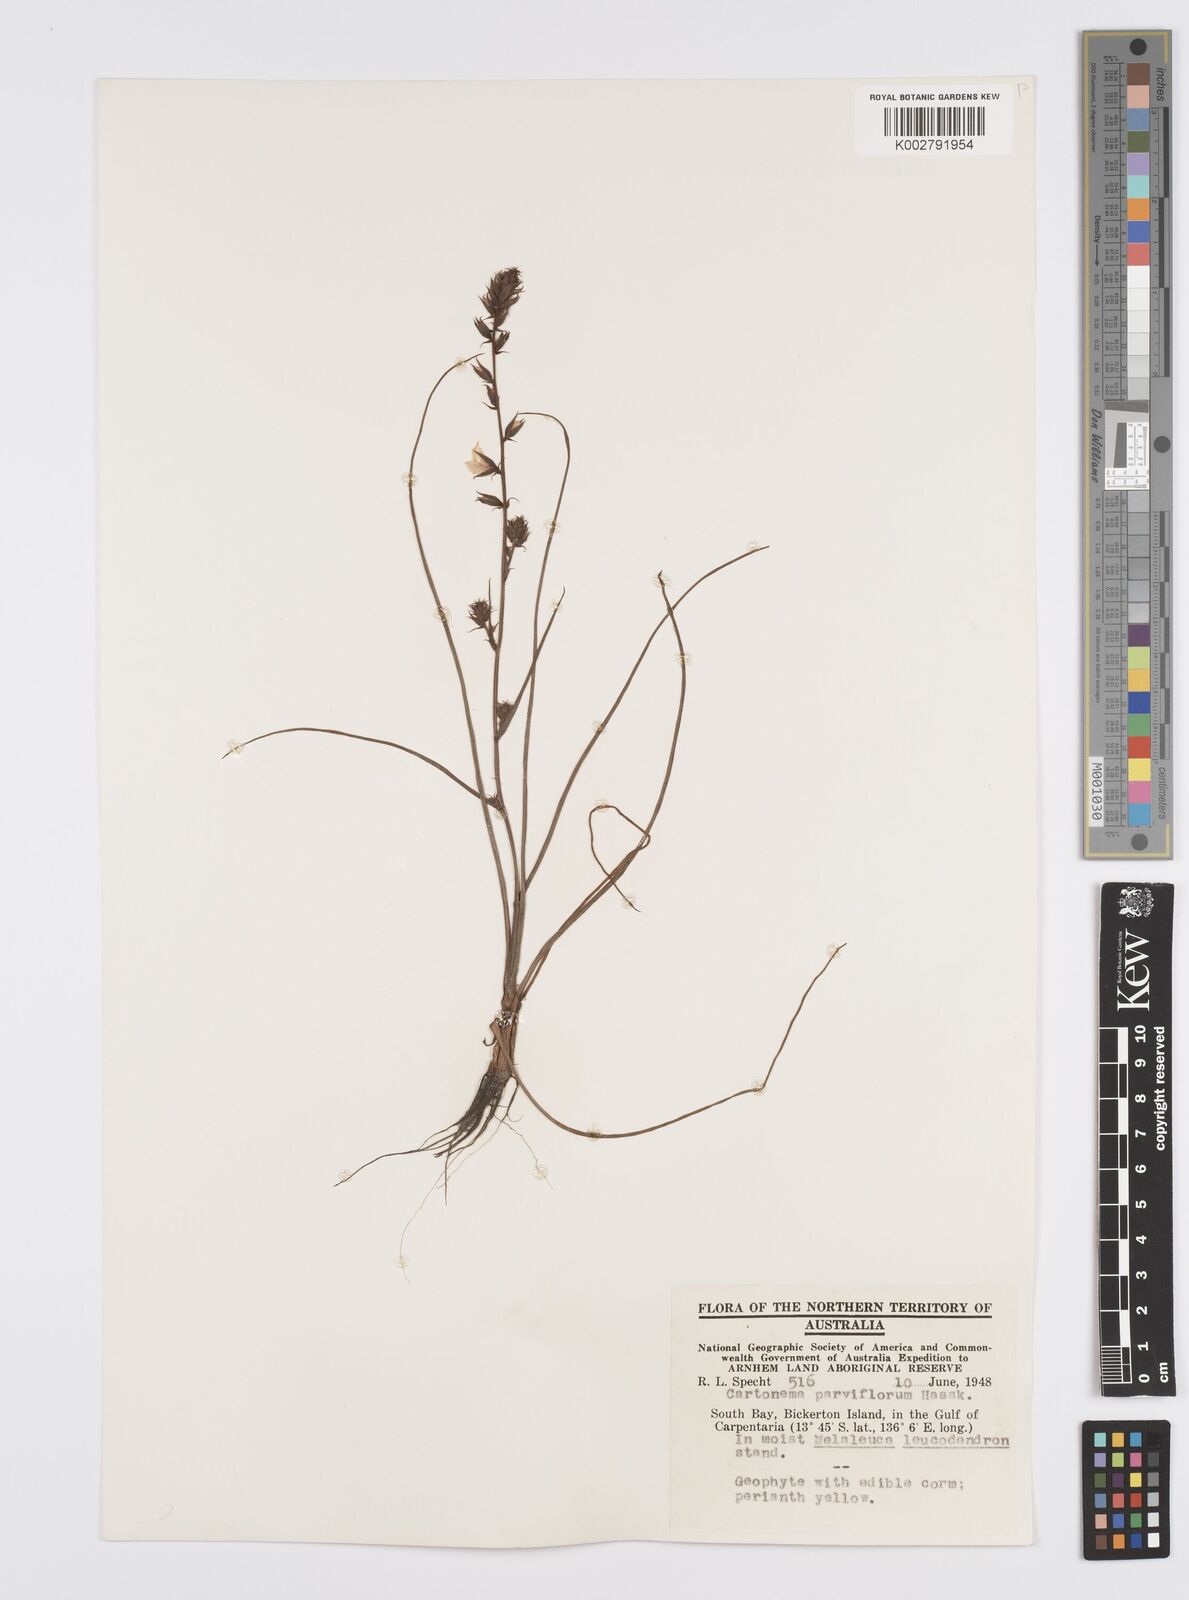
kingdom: Plantae
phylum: Tracheophyta
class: Liliopsida
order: Commelinales
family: Commelinaceae
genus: Cartonema
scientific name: Cartonema parviflorum
